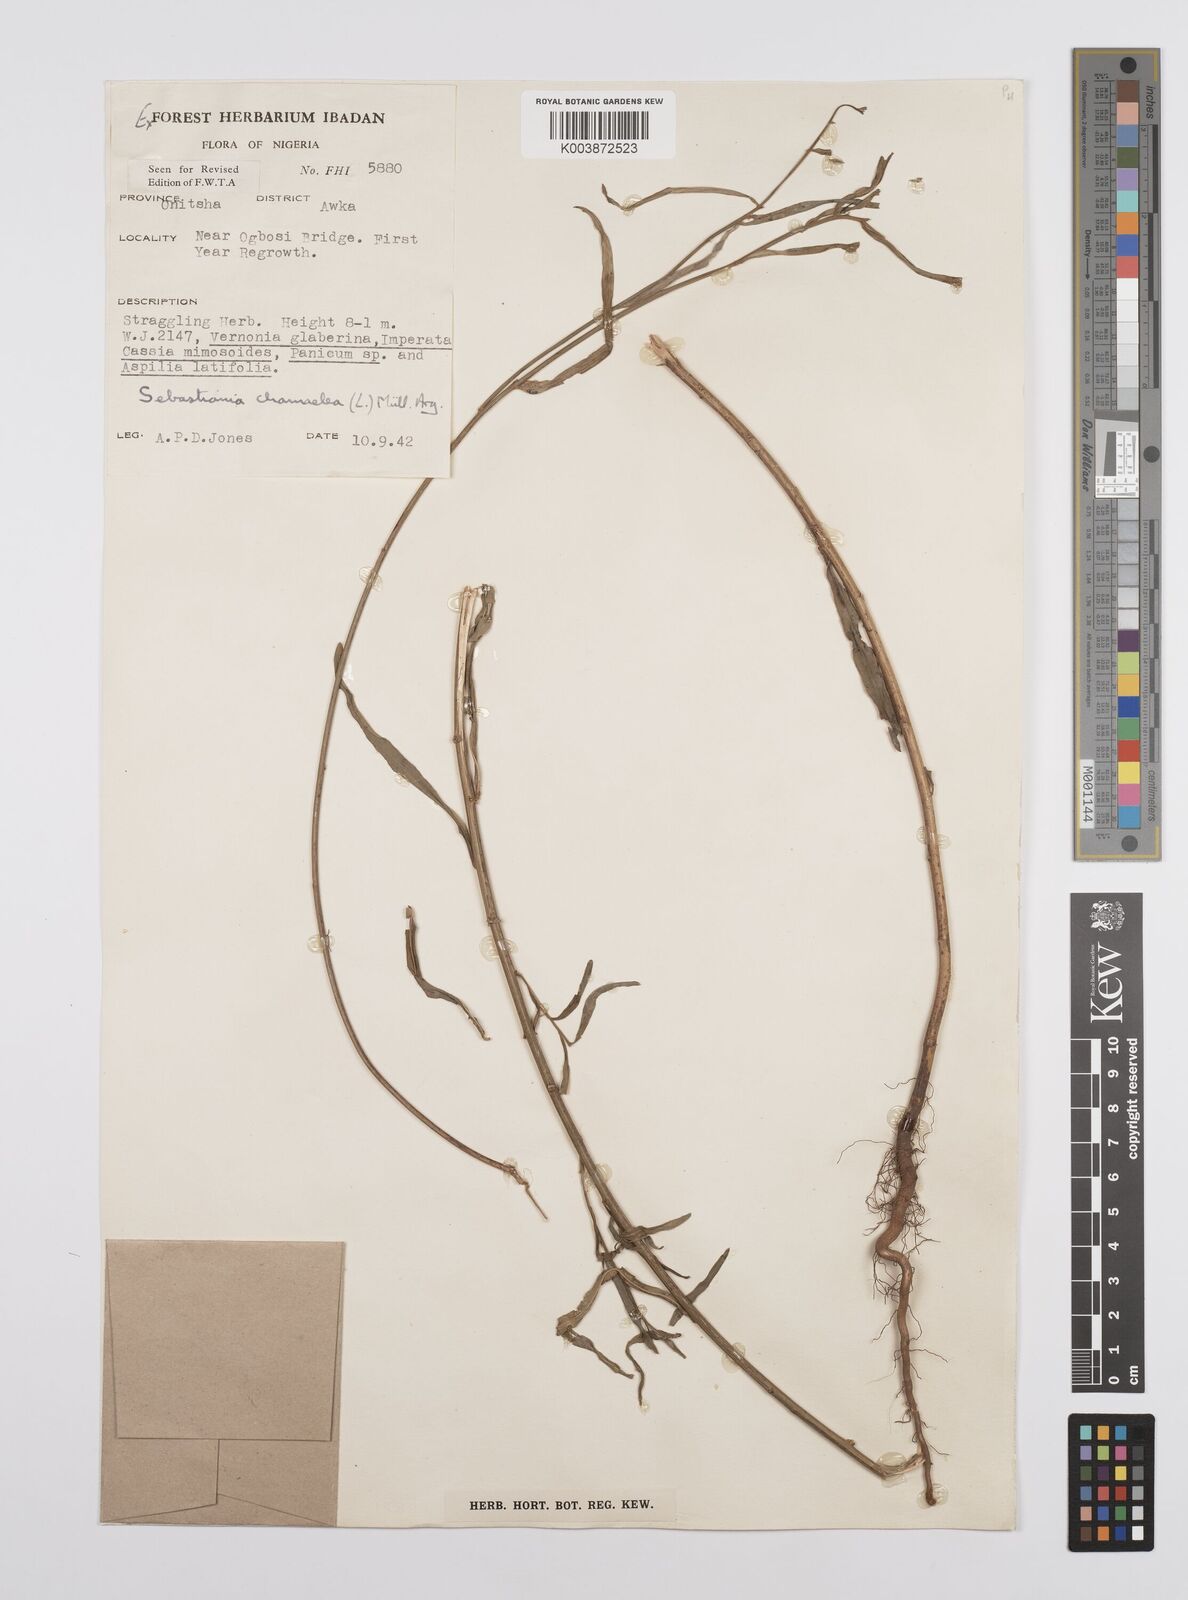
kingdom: Plantae
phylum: Tracheophyta
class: Magnoliopsida
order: Malpighiales
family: Euphorbiaceae
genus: Microstachys
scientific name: Microstachys chamaelea
